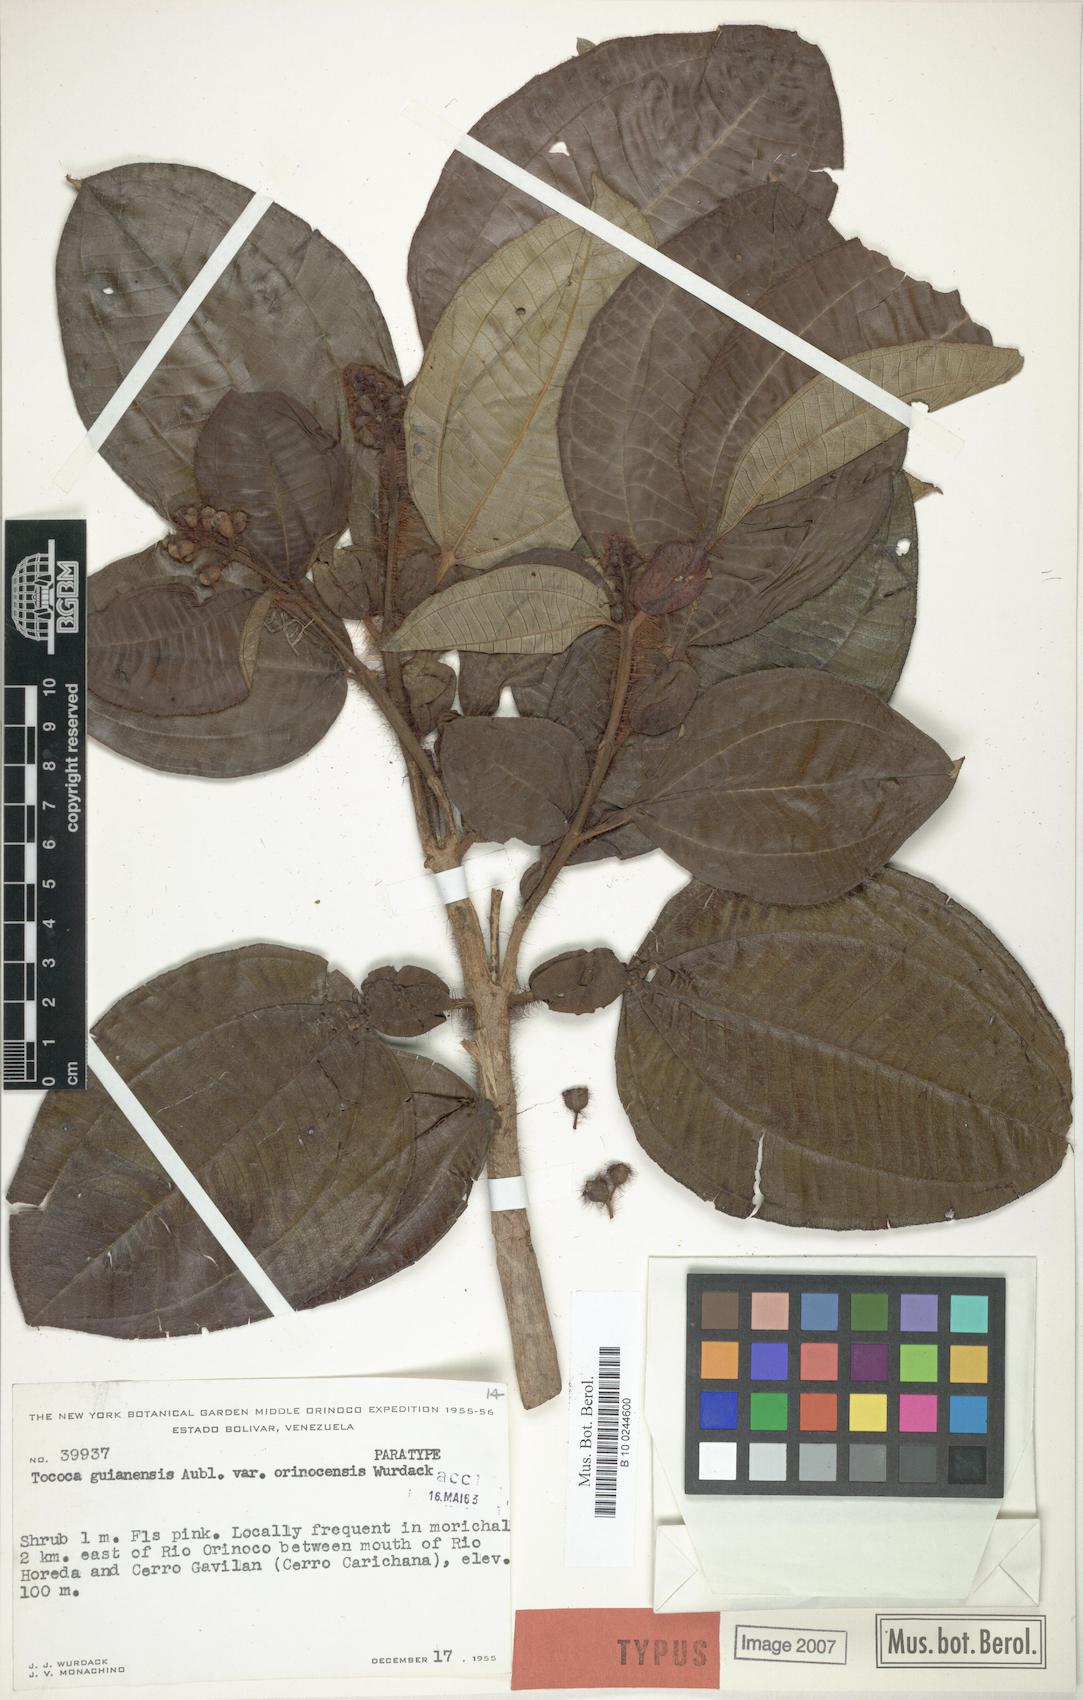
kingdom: Plantae
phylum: Tracheophyta
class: Magnoliopsida
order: Myrtales
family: Melastomataceae
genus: Miconia
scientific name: Miconia tococa
